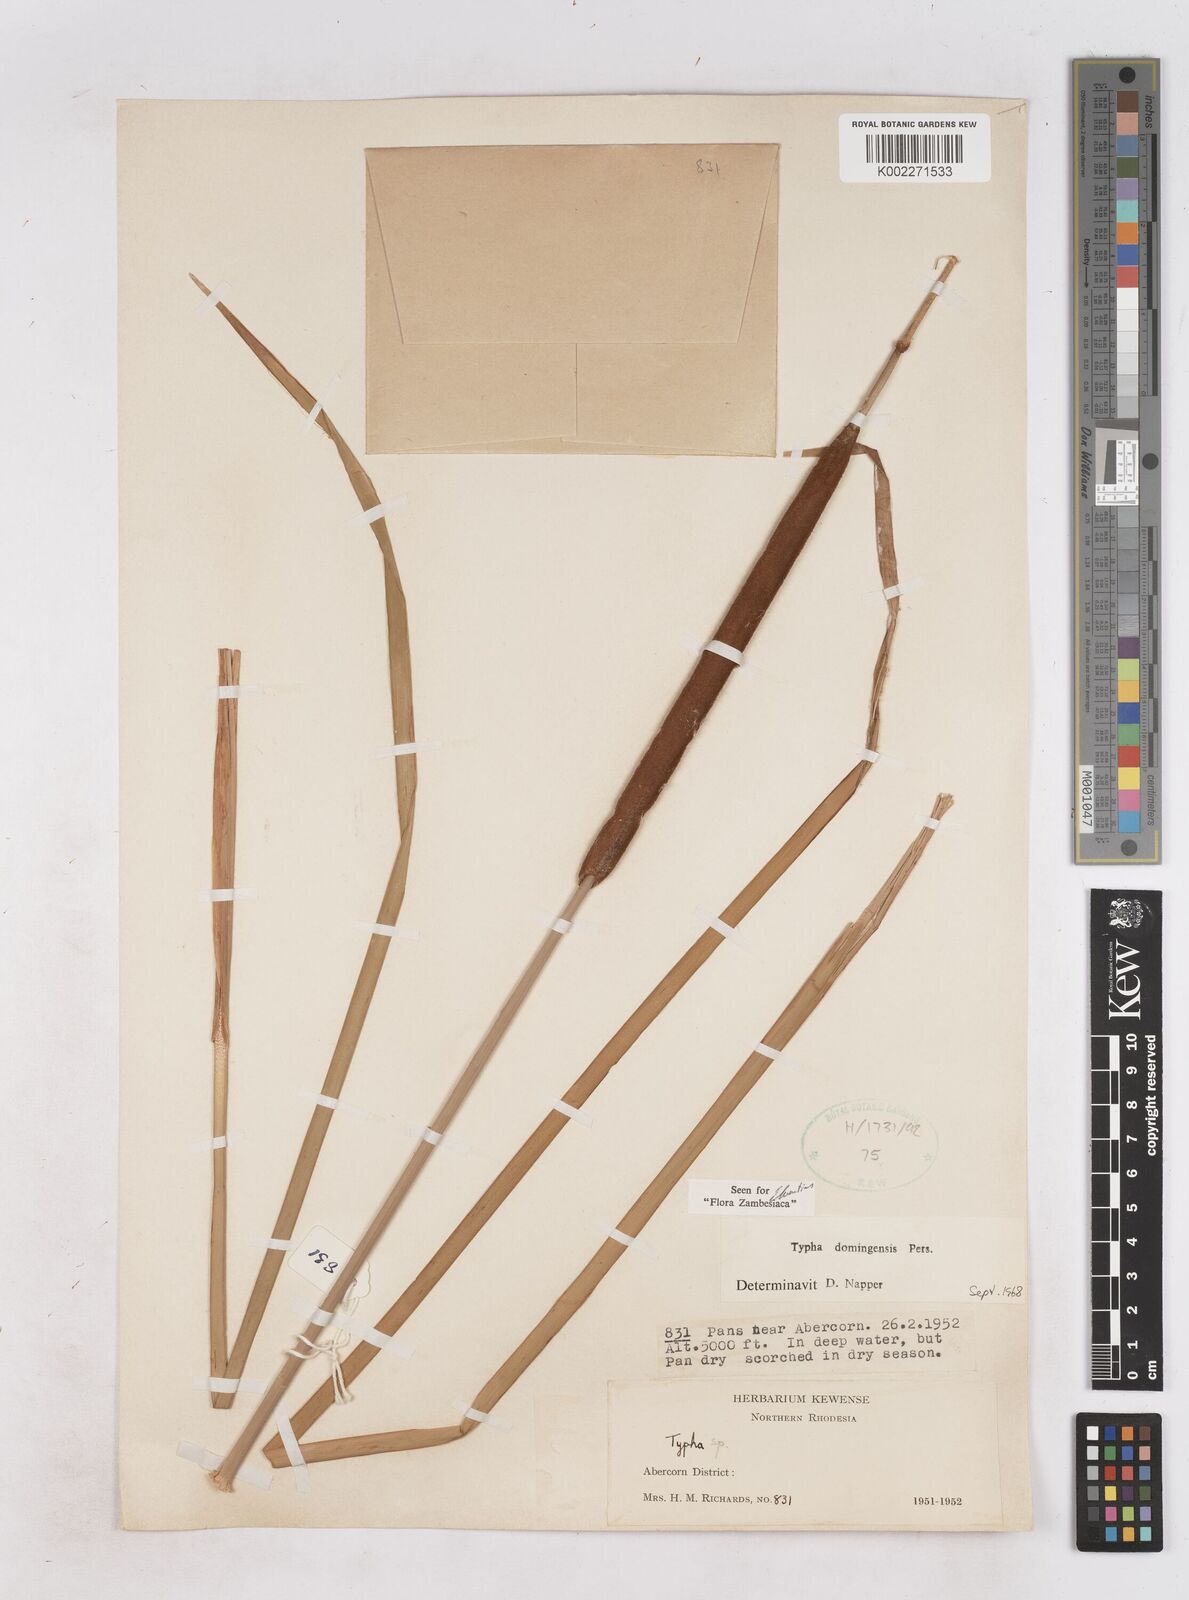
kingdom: Plantae
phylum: Tracheophyta
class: Liliopsida
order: Poales
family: Typhaceae
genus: Typha
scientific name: Typha domingensis
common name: Southern cattail
